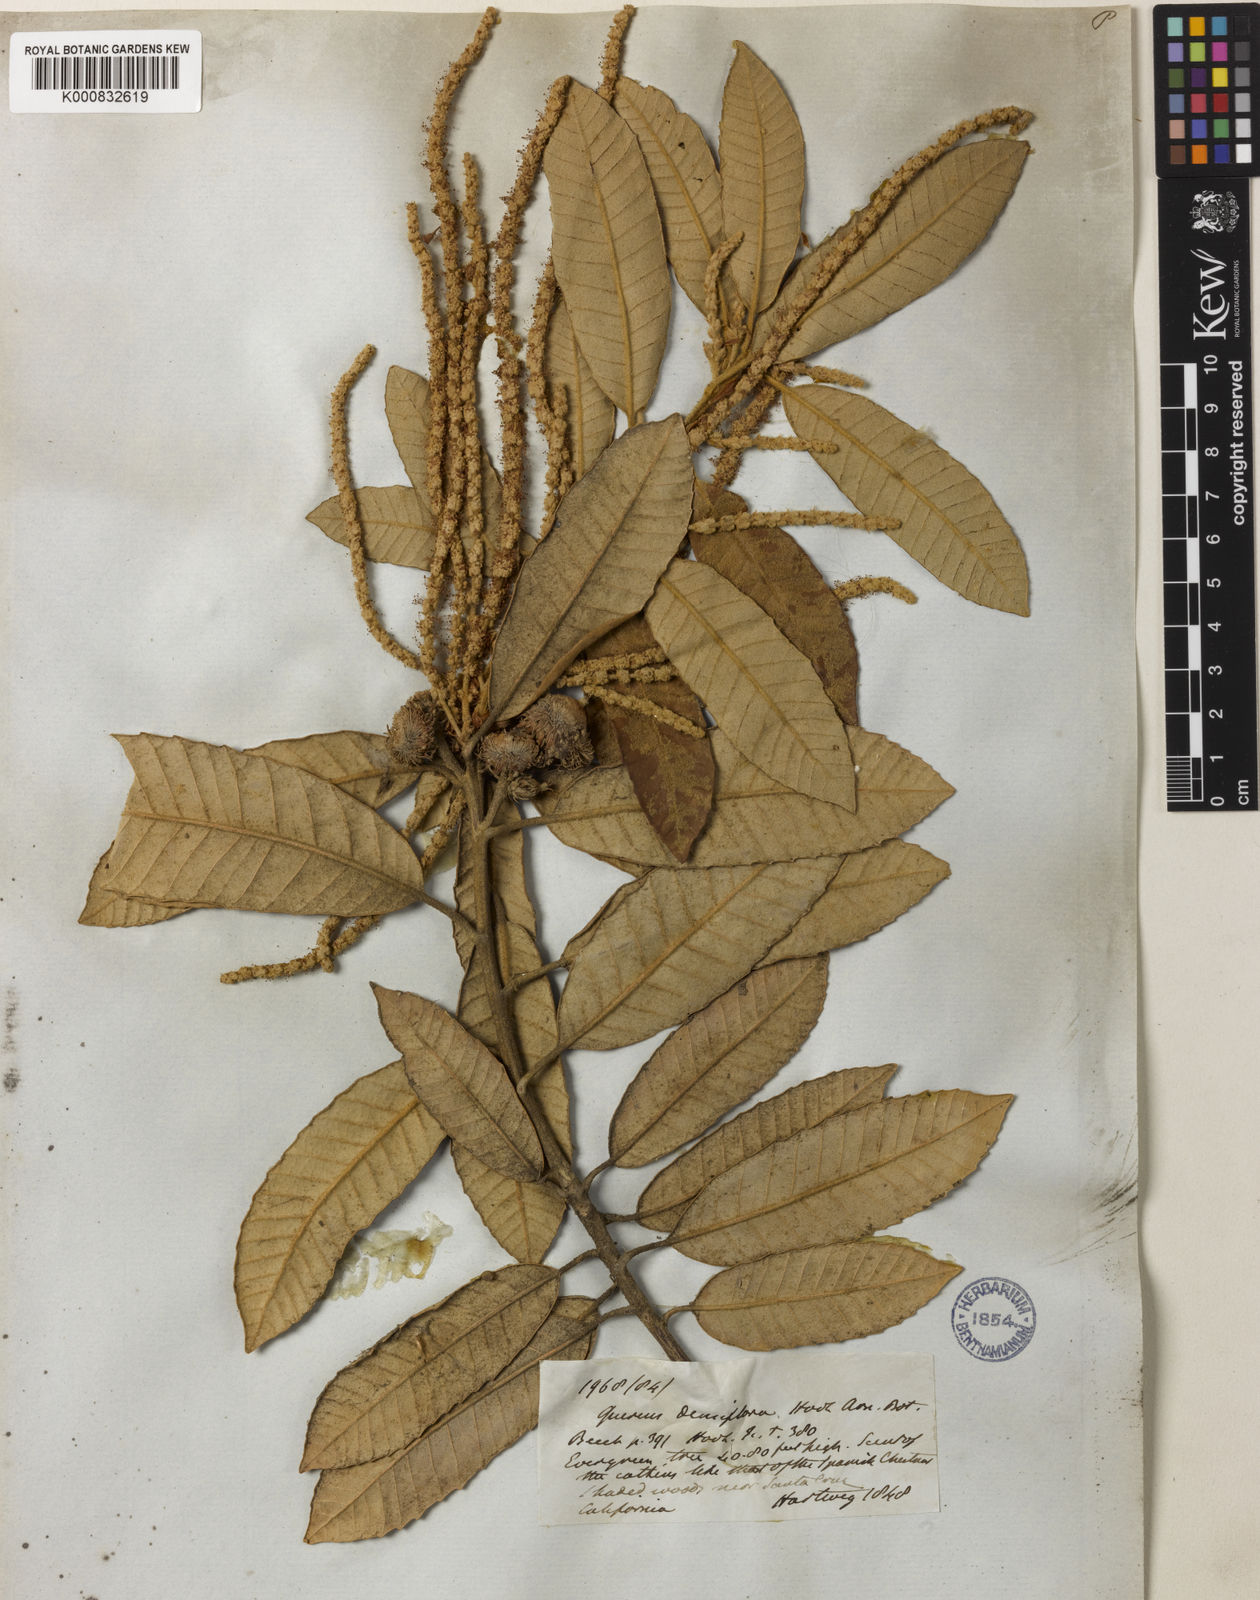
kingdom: Plantae
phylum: Tracheophyta
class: Magnoliopsida
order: Fagales
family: Fagaceae
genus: Notholithocarpus
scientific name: Notholithocarpus
